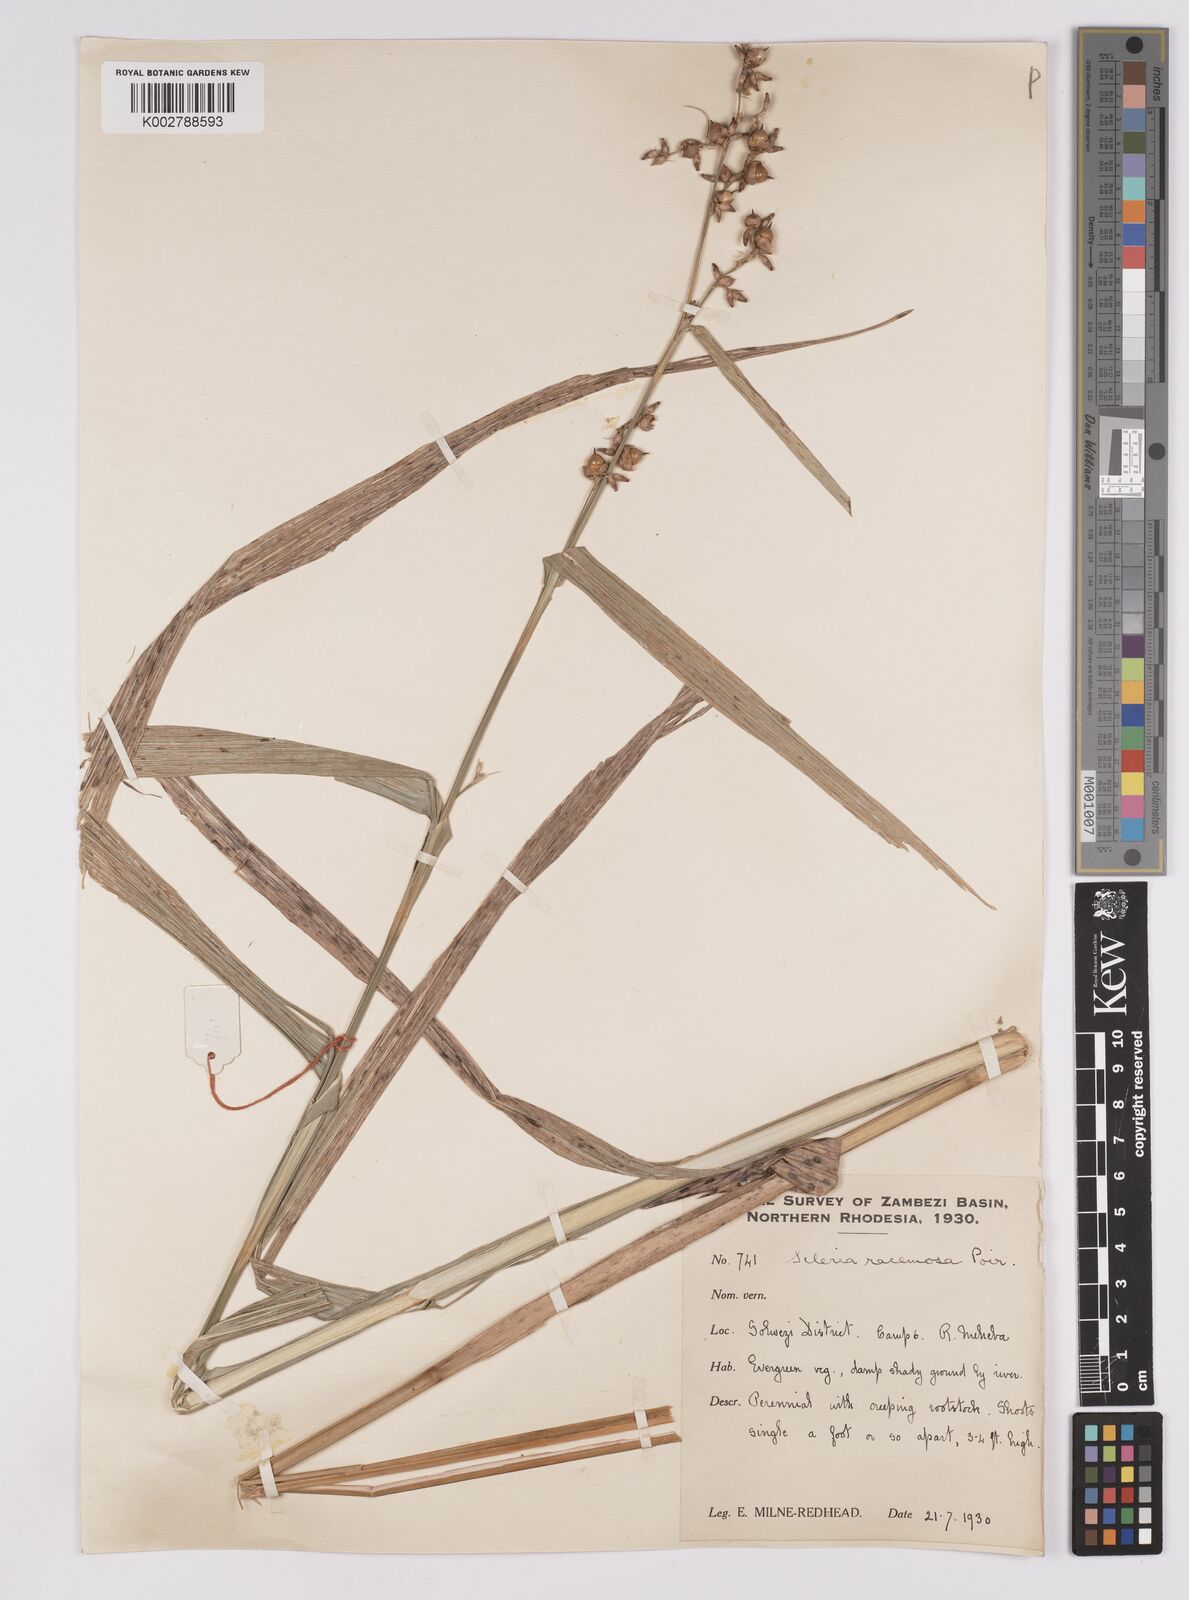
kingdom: Plantae
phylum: Tracheophyta
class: Liliopsida
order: Poales
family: Cyperaceae
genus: Scleria
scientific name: Scleria racemosa
